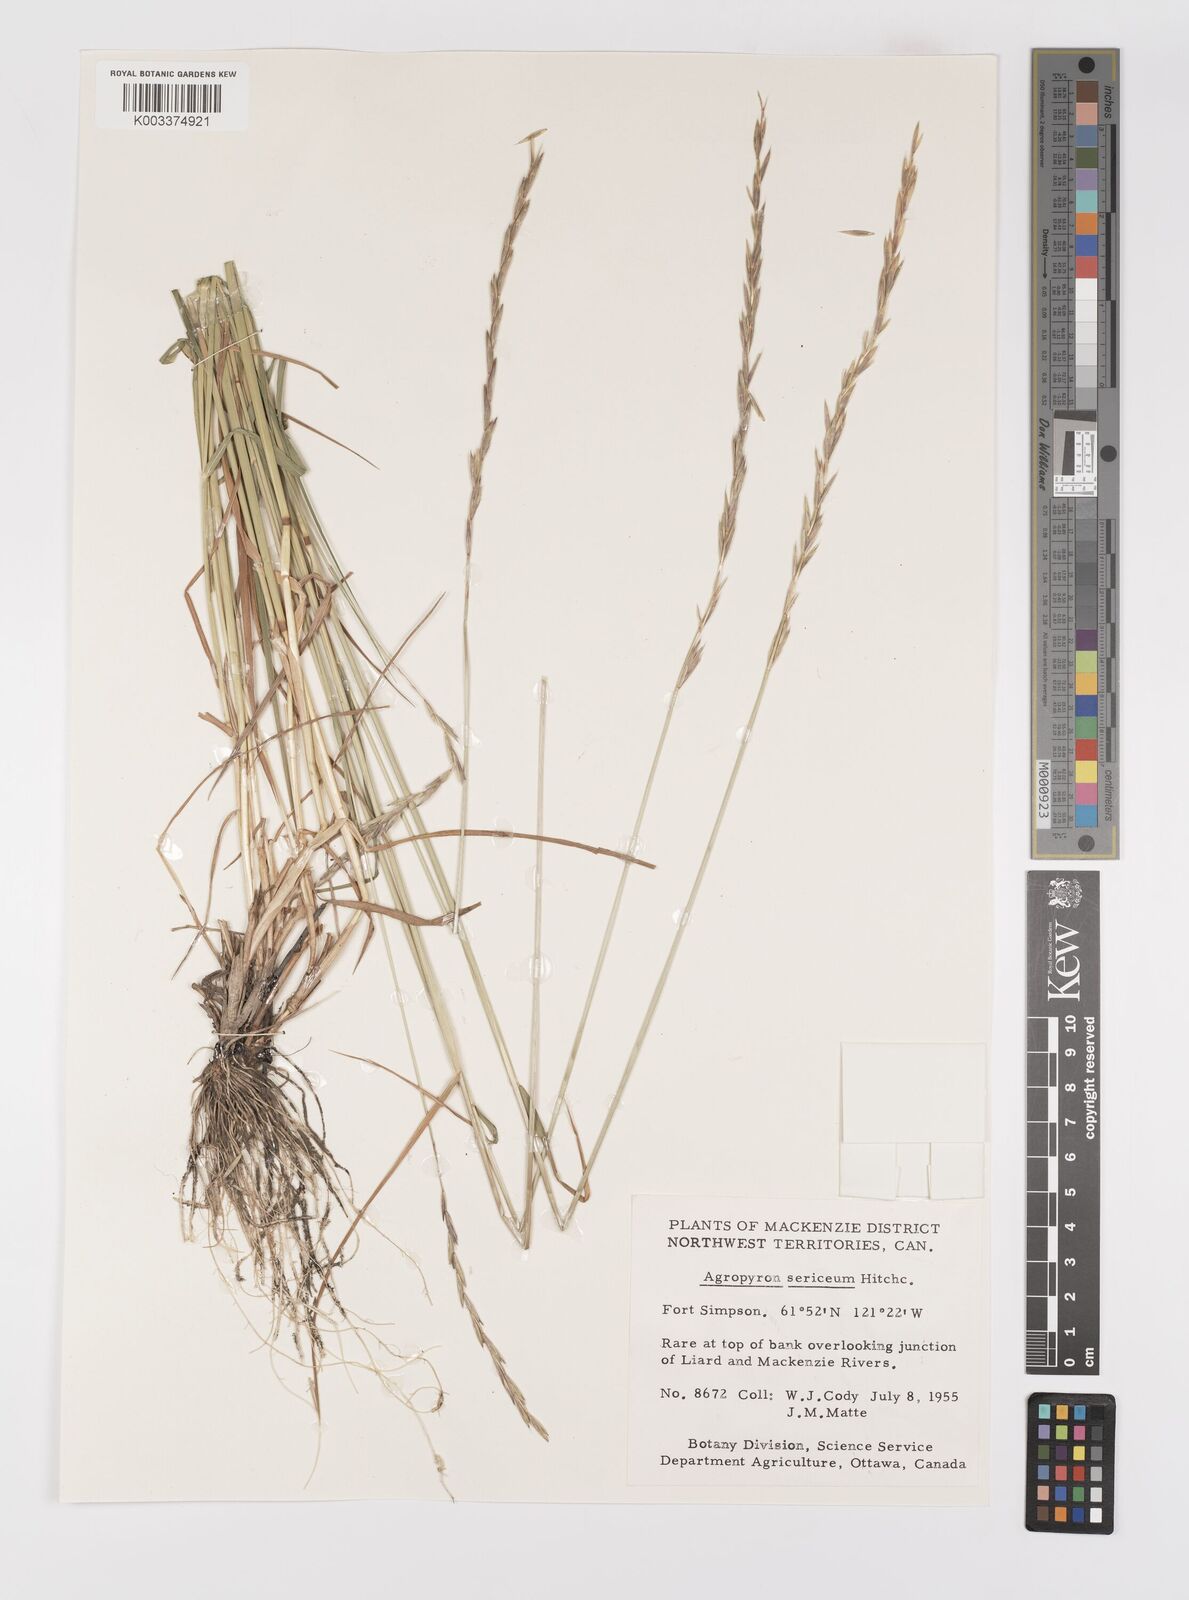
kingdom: Plantae
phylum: Tracheophyta
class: Liliopsida
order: Poales
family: Poaceae
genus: Elymus
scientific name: Elymus macrourus
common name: Northern wheatgrass
